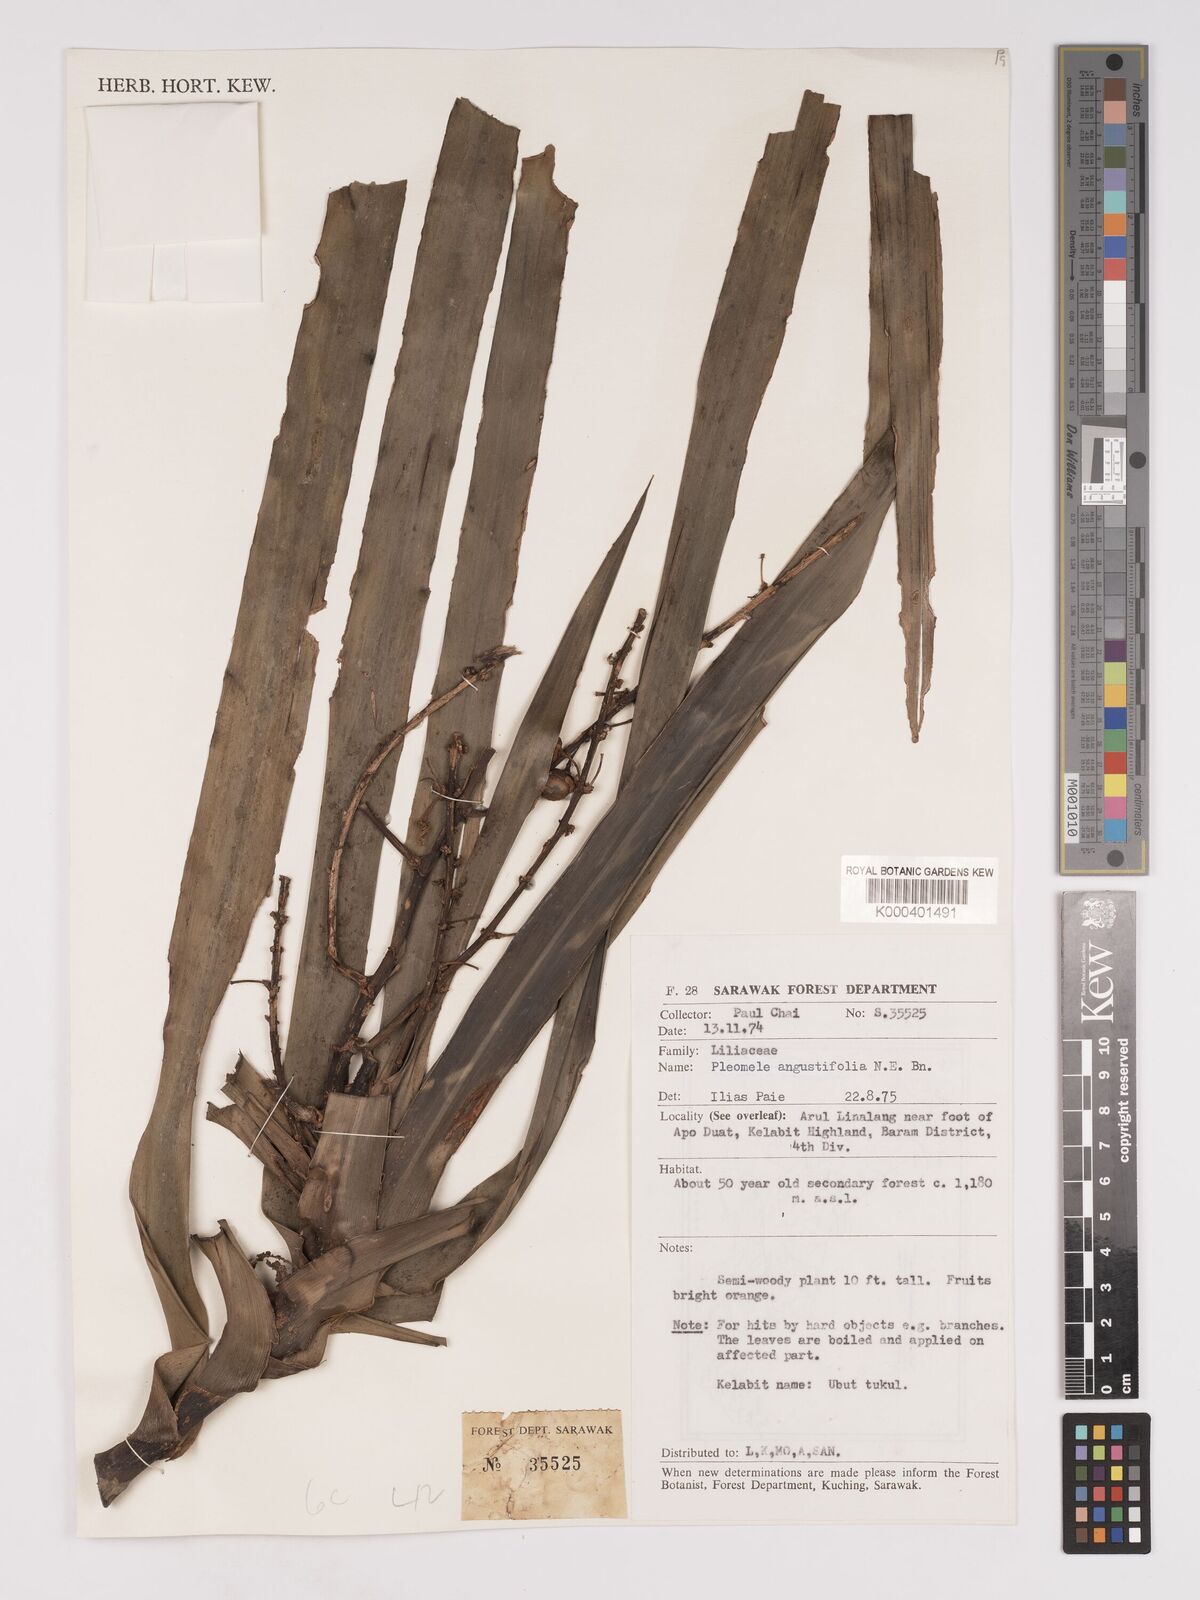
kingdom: Plantae
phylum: Tracheophyta
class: Liliopsida
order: Asparagales
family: Asparagaceae
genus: Dracaena
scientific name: Dracaena angustifolia
